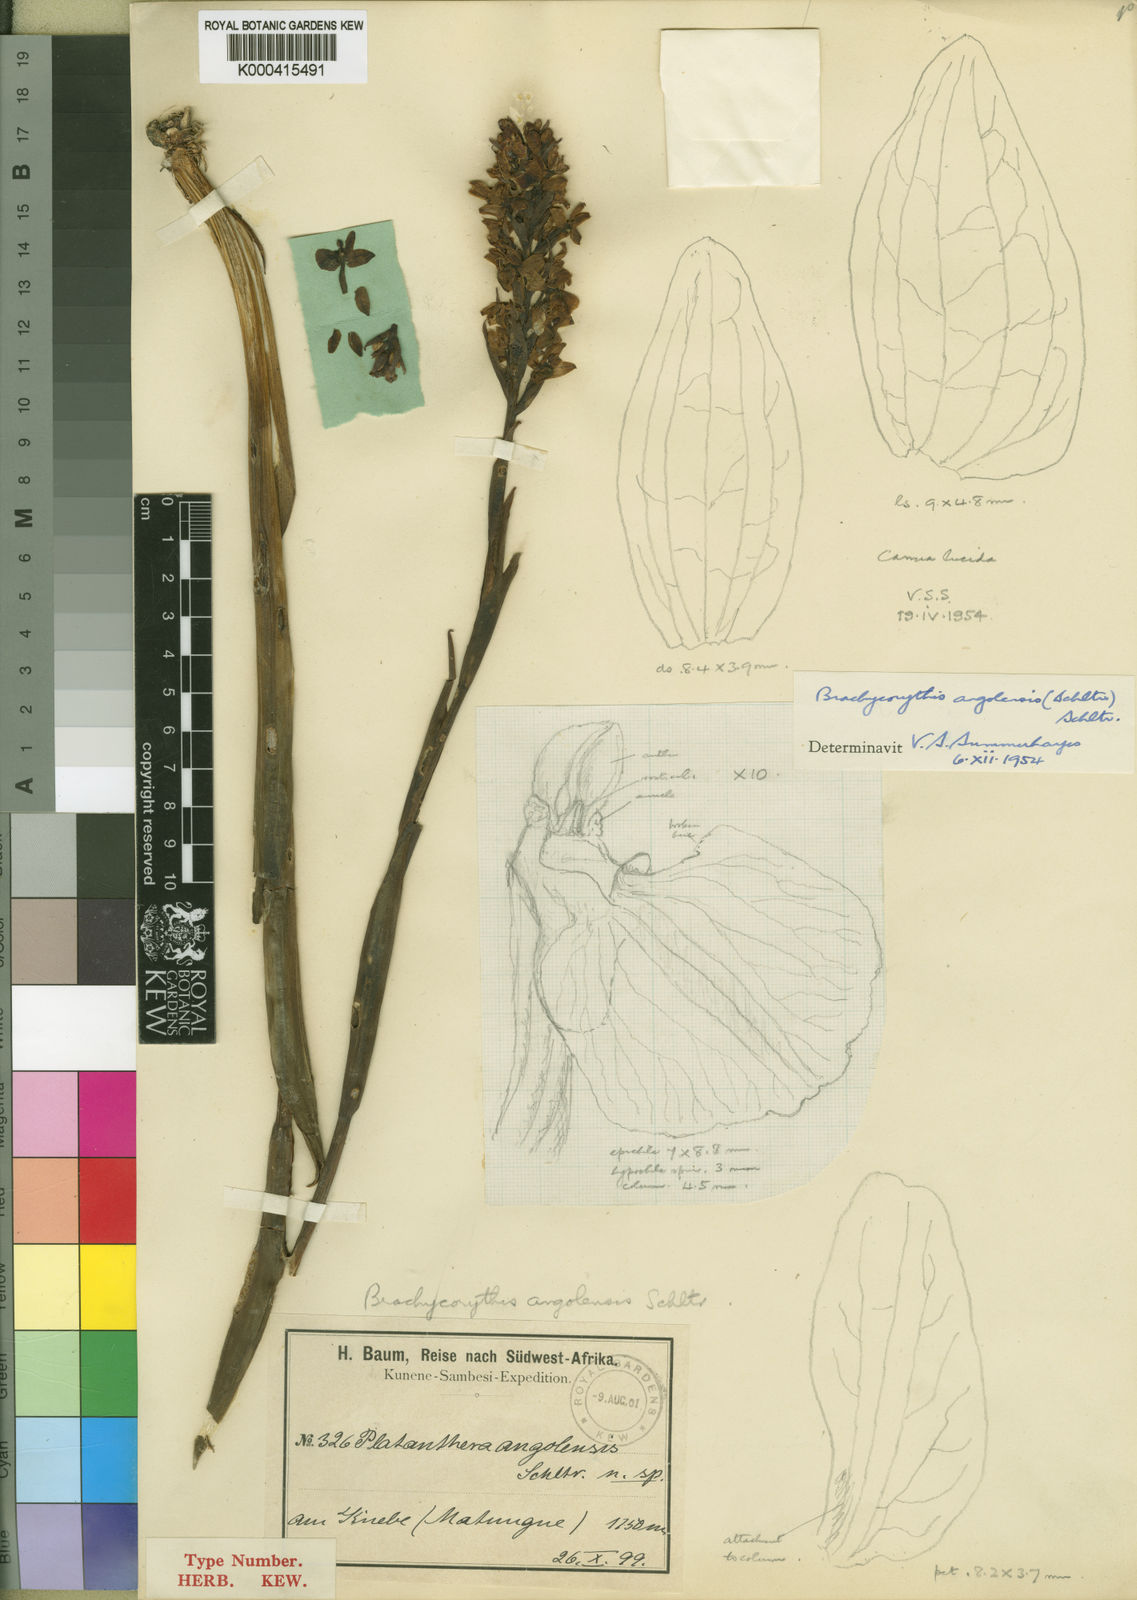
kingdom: Plantae
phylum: Tracheophyta
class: Liliopsida
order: Asparagales
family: Orchidaceae
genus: Brachycorythis
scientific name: Brachycorythis angolensis
